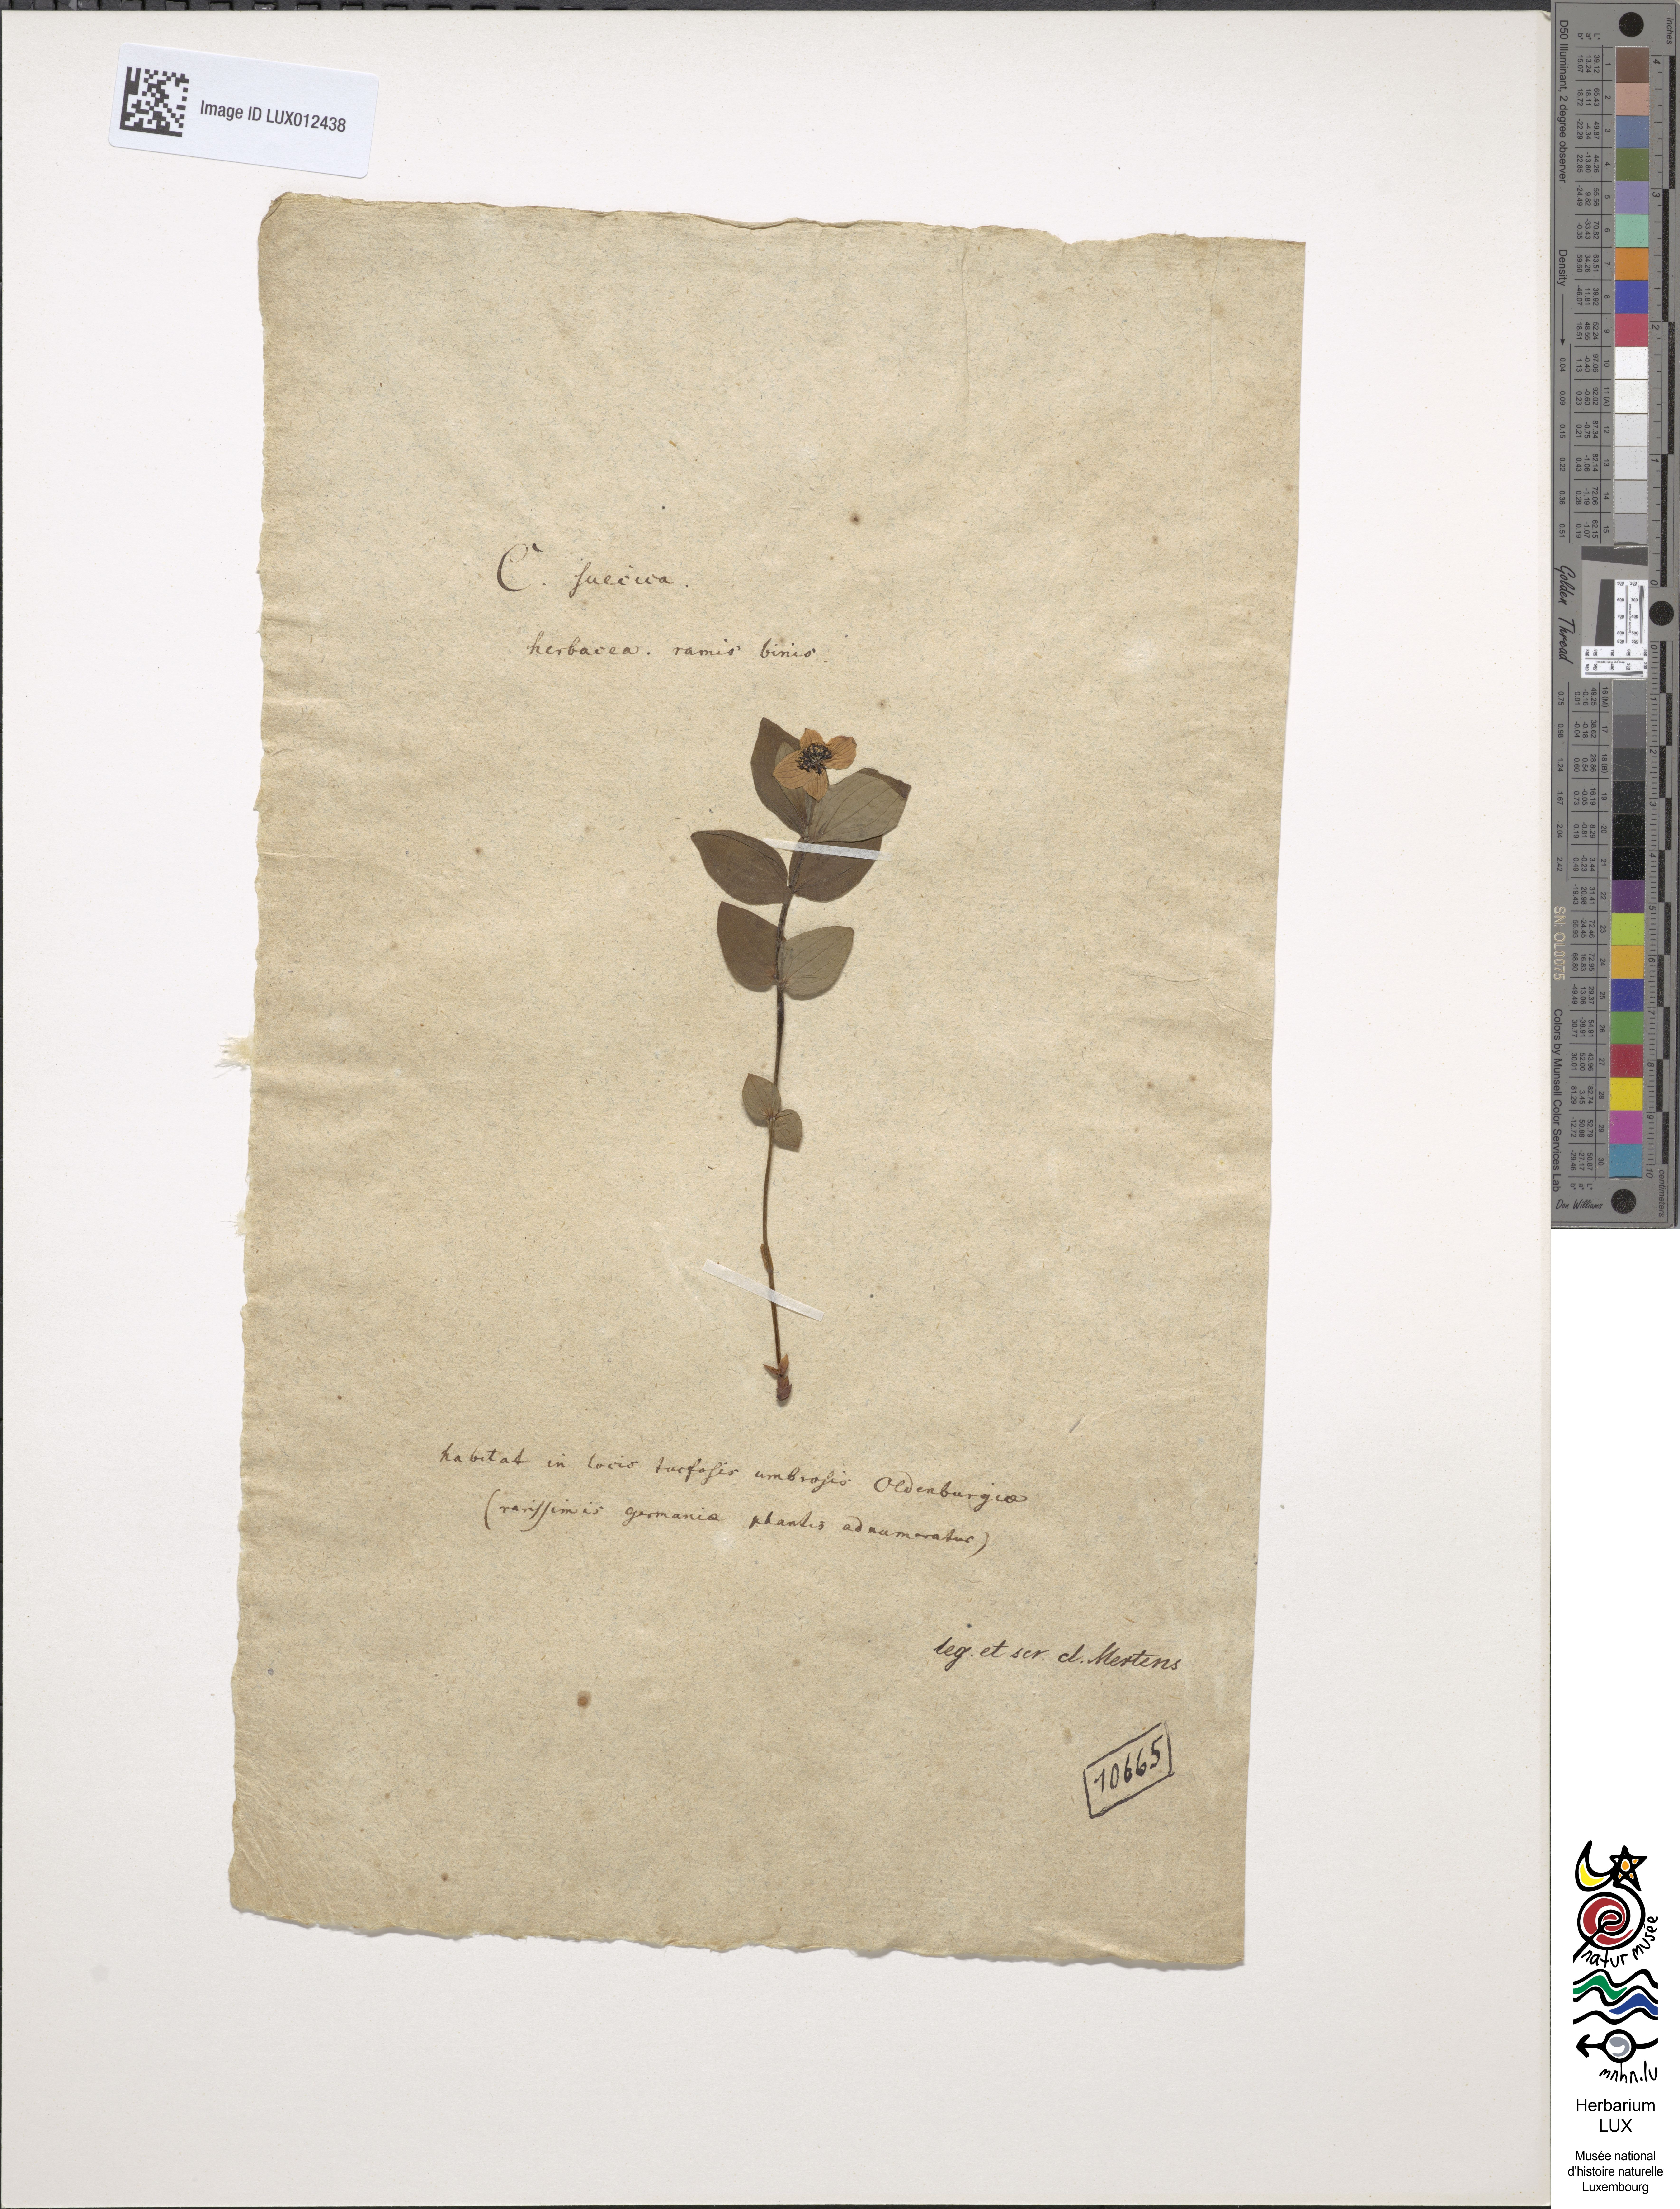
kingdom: Plantae
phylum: Tracheophyta
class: Magnoliopsida
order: Cornales
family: Cornaceae
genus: Cornus
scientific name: Cornus suecica
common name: Dwarf cornel
